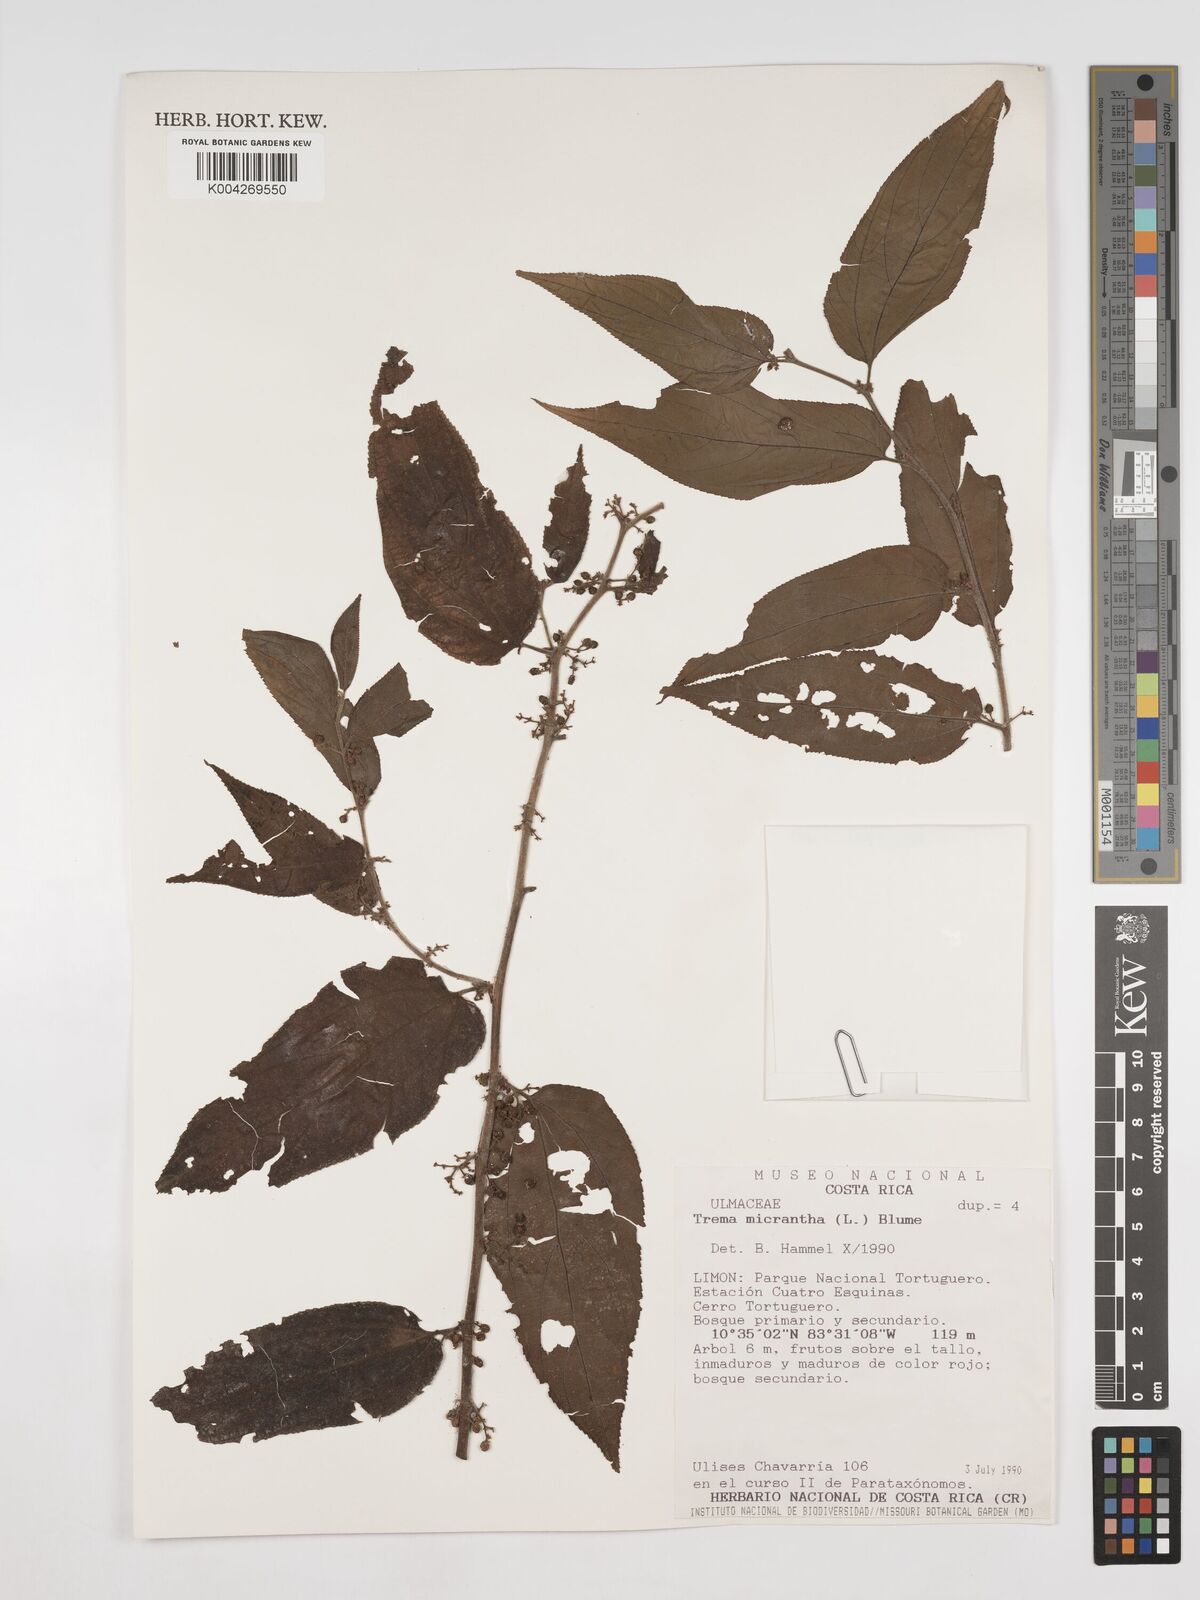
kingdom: Plantae
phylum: Tracheophyta
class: Magnoliopsida
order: Rosales
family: Cannabaceae
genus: Trema
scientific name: Trema micranthum
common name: Jamaican nettletree
